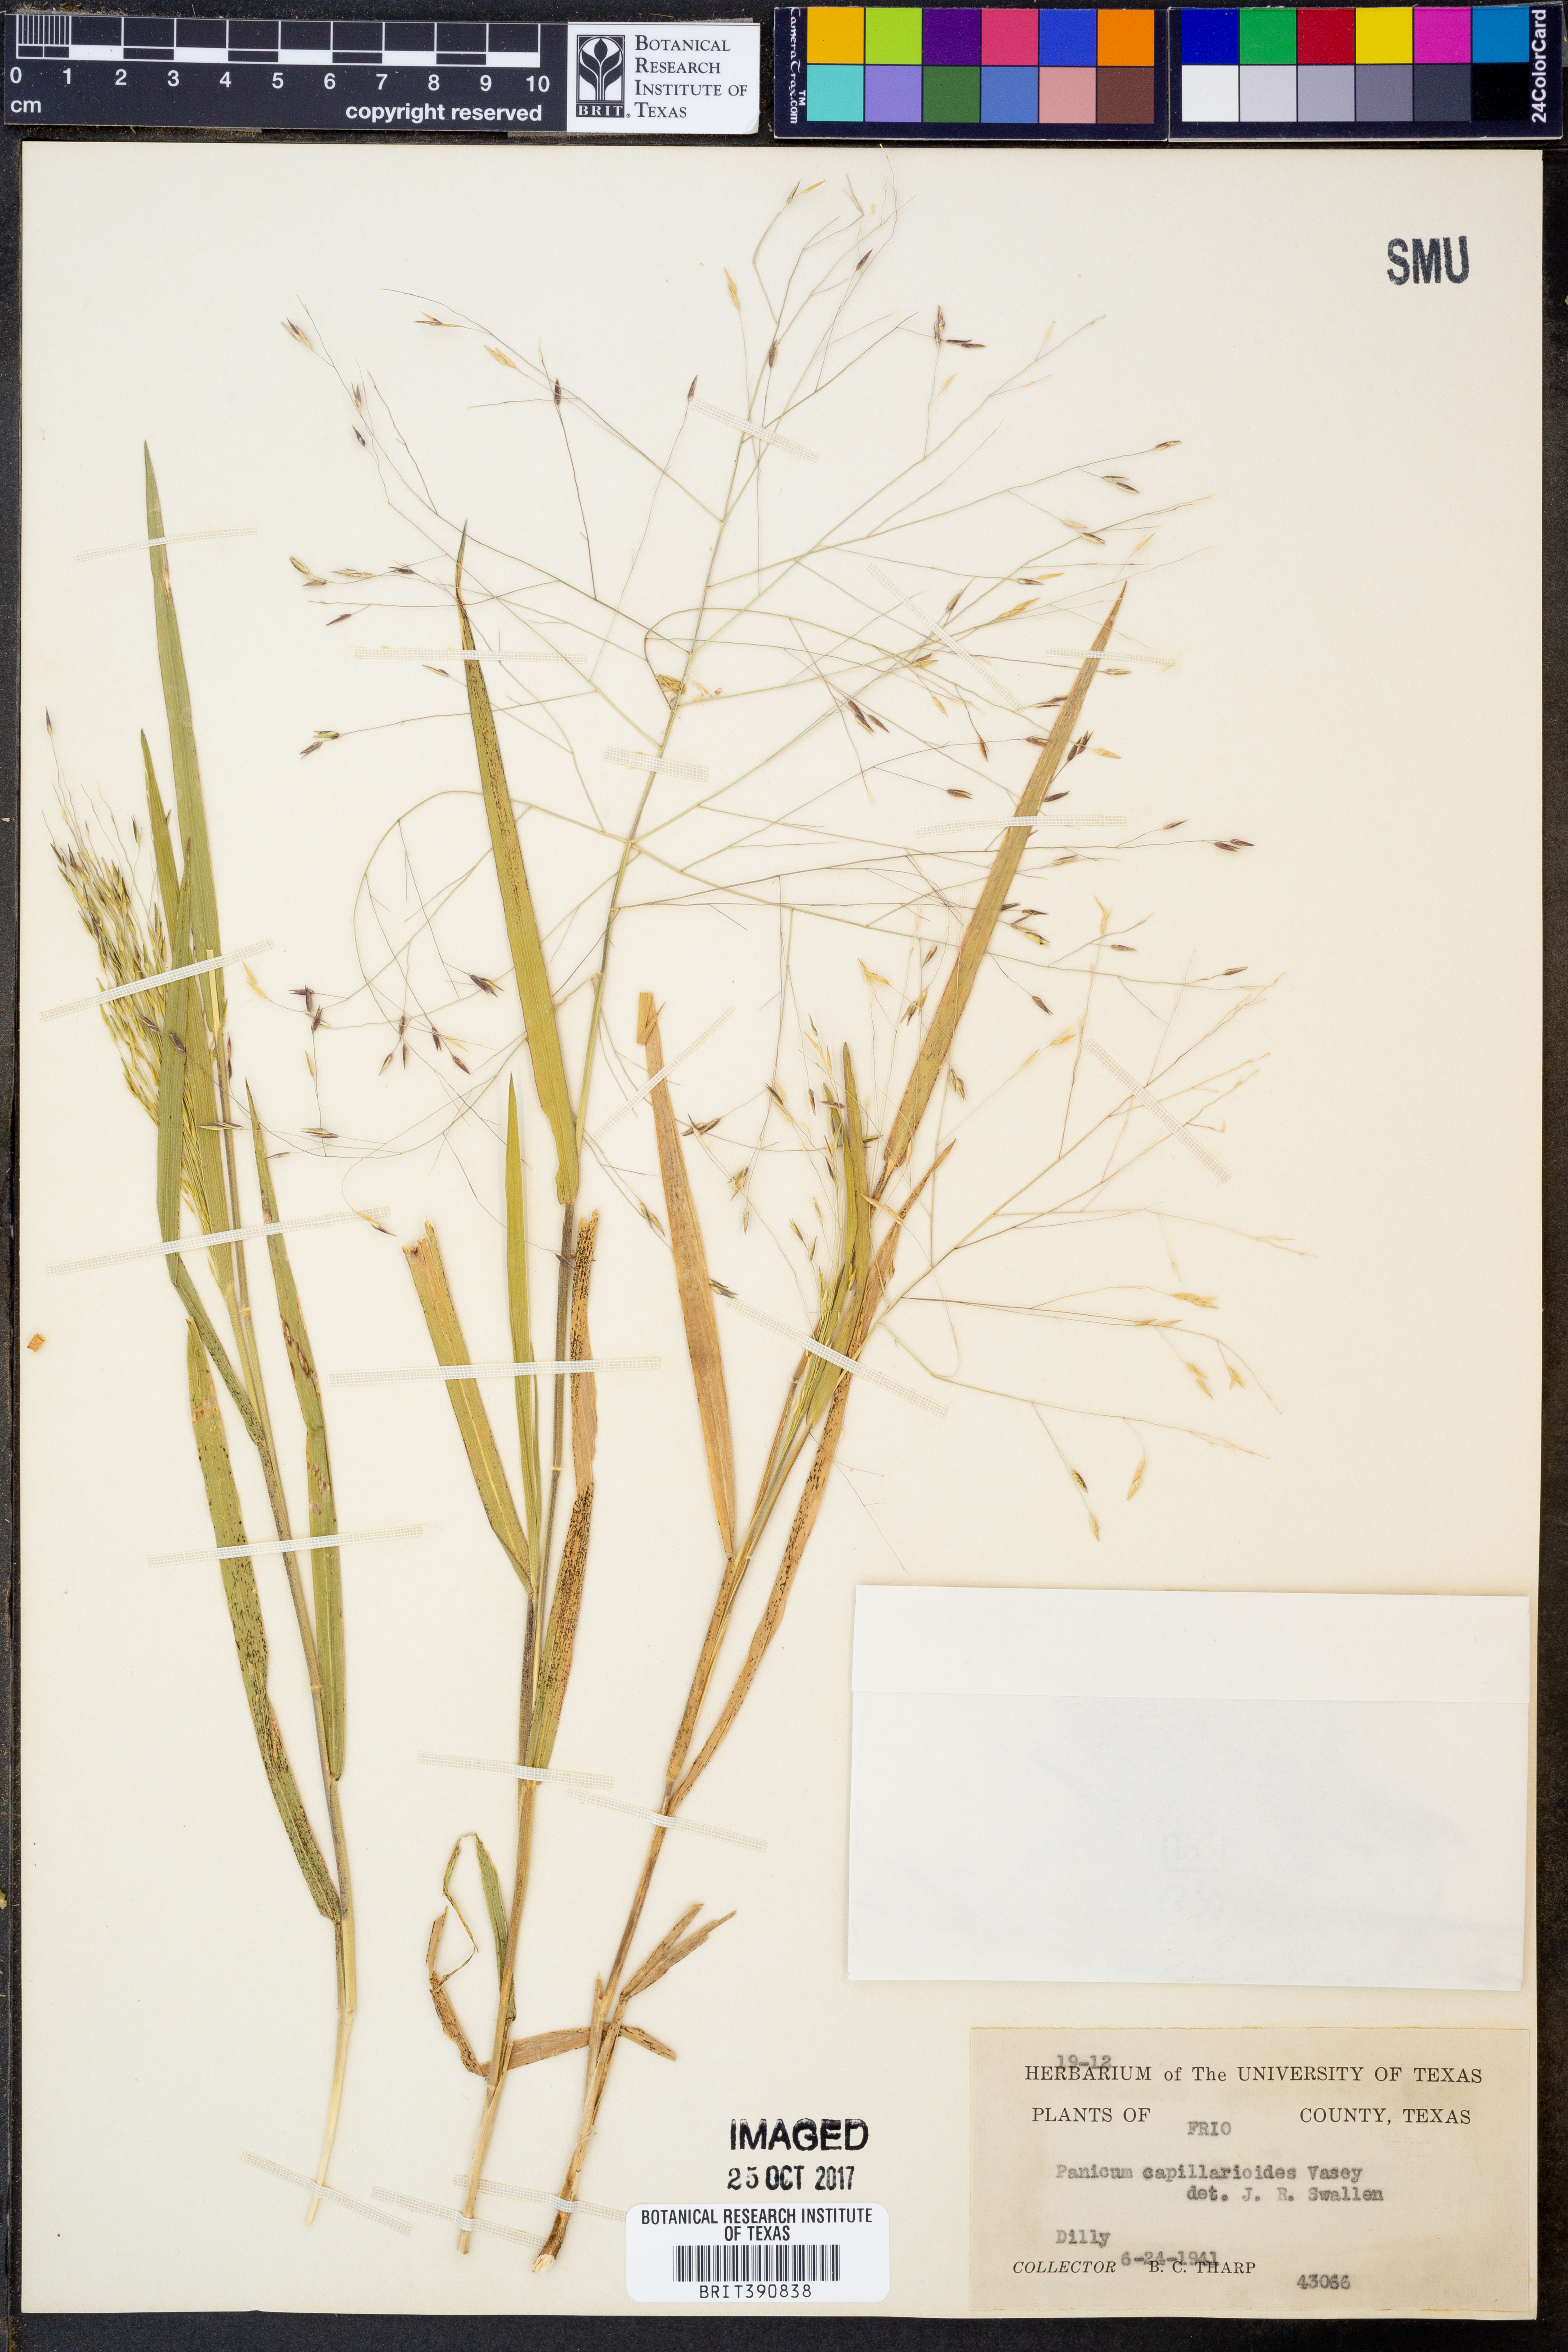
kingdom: Plantae
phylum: Tracheophyta
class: Liliopsida
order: Poales
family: Poaceae
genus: Panicum
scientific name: Panicum capillarioides
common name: Long-beak witchgrass
